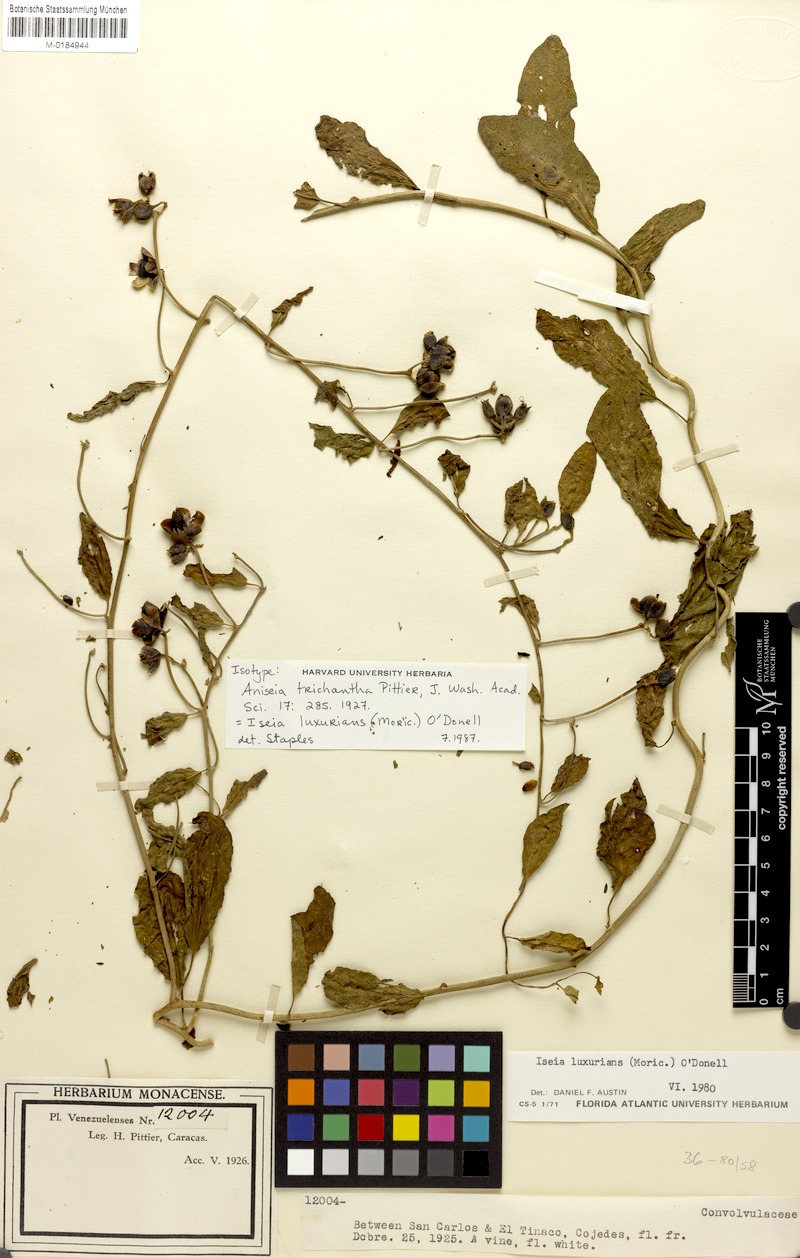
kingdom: Plantae
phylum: Tracheophyta
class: Magnoliopsida
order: Solanales
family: Convolvulaceae
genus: Aniseia
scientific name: Aniseia luxurians
